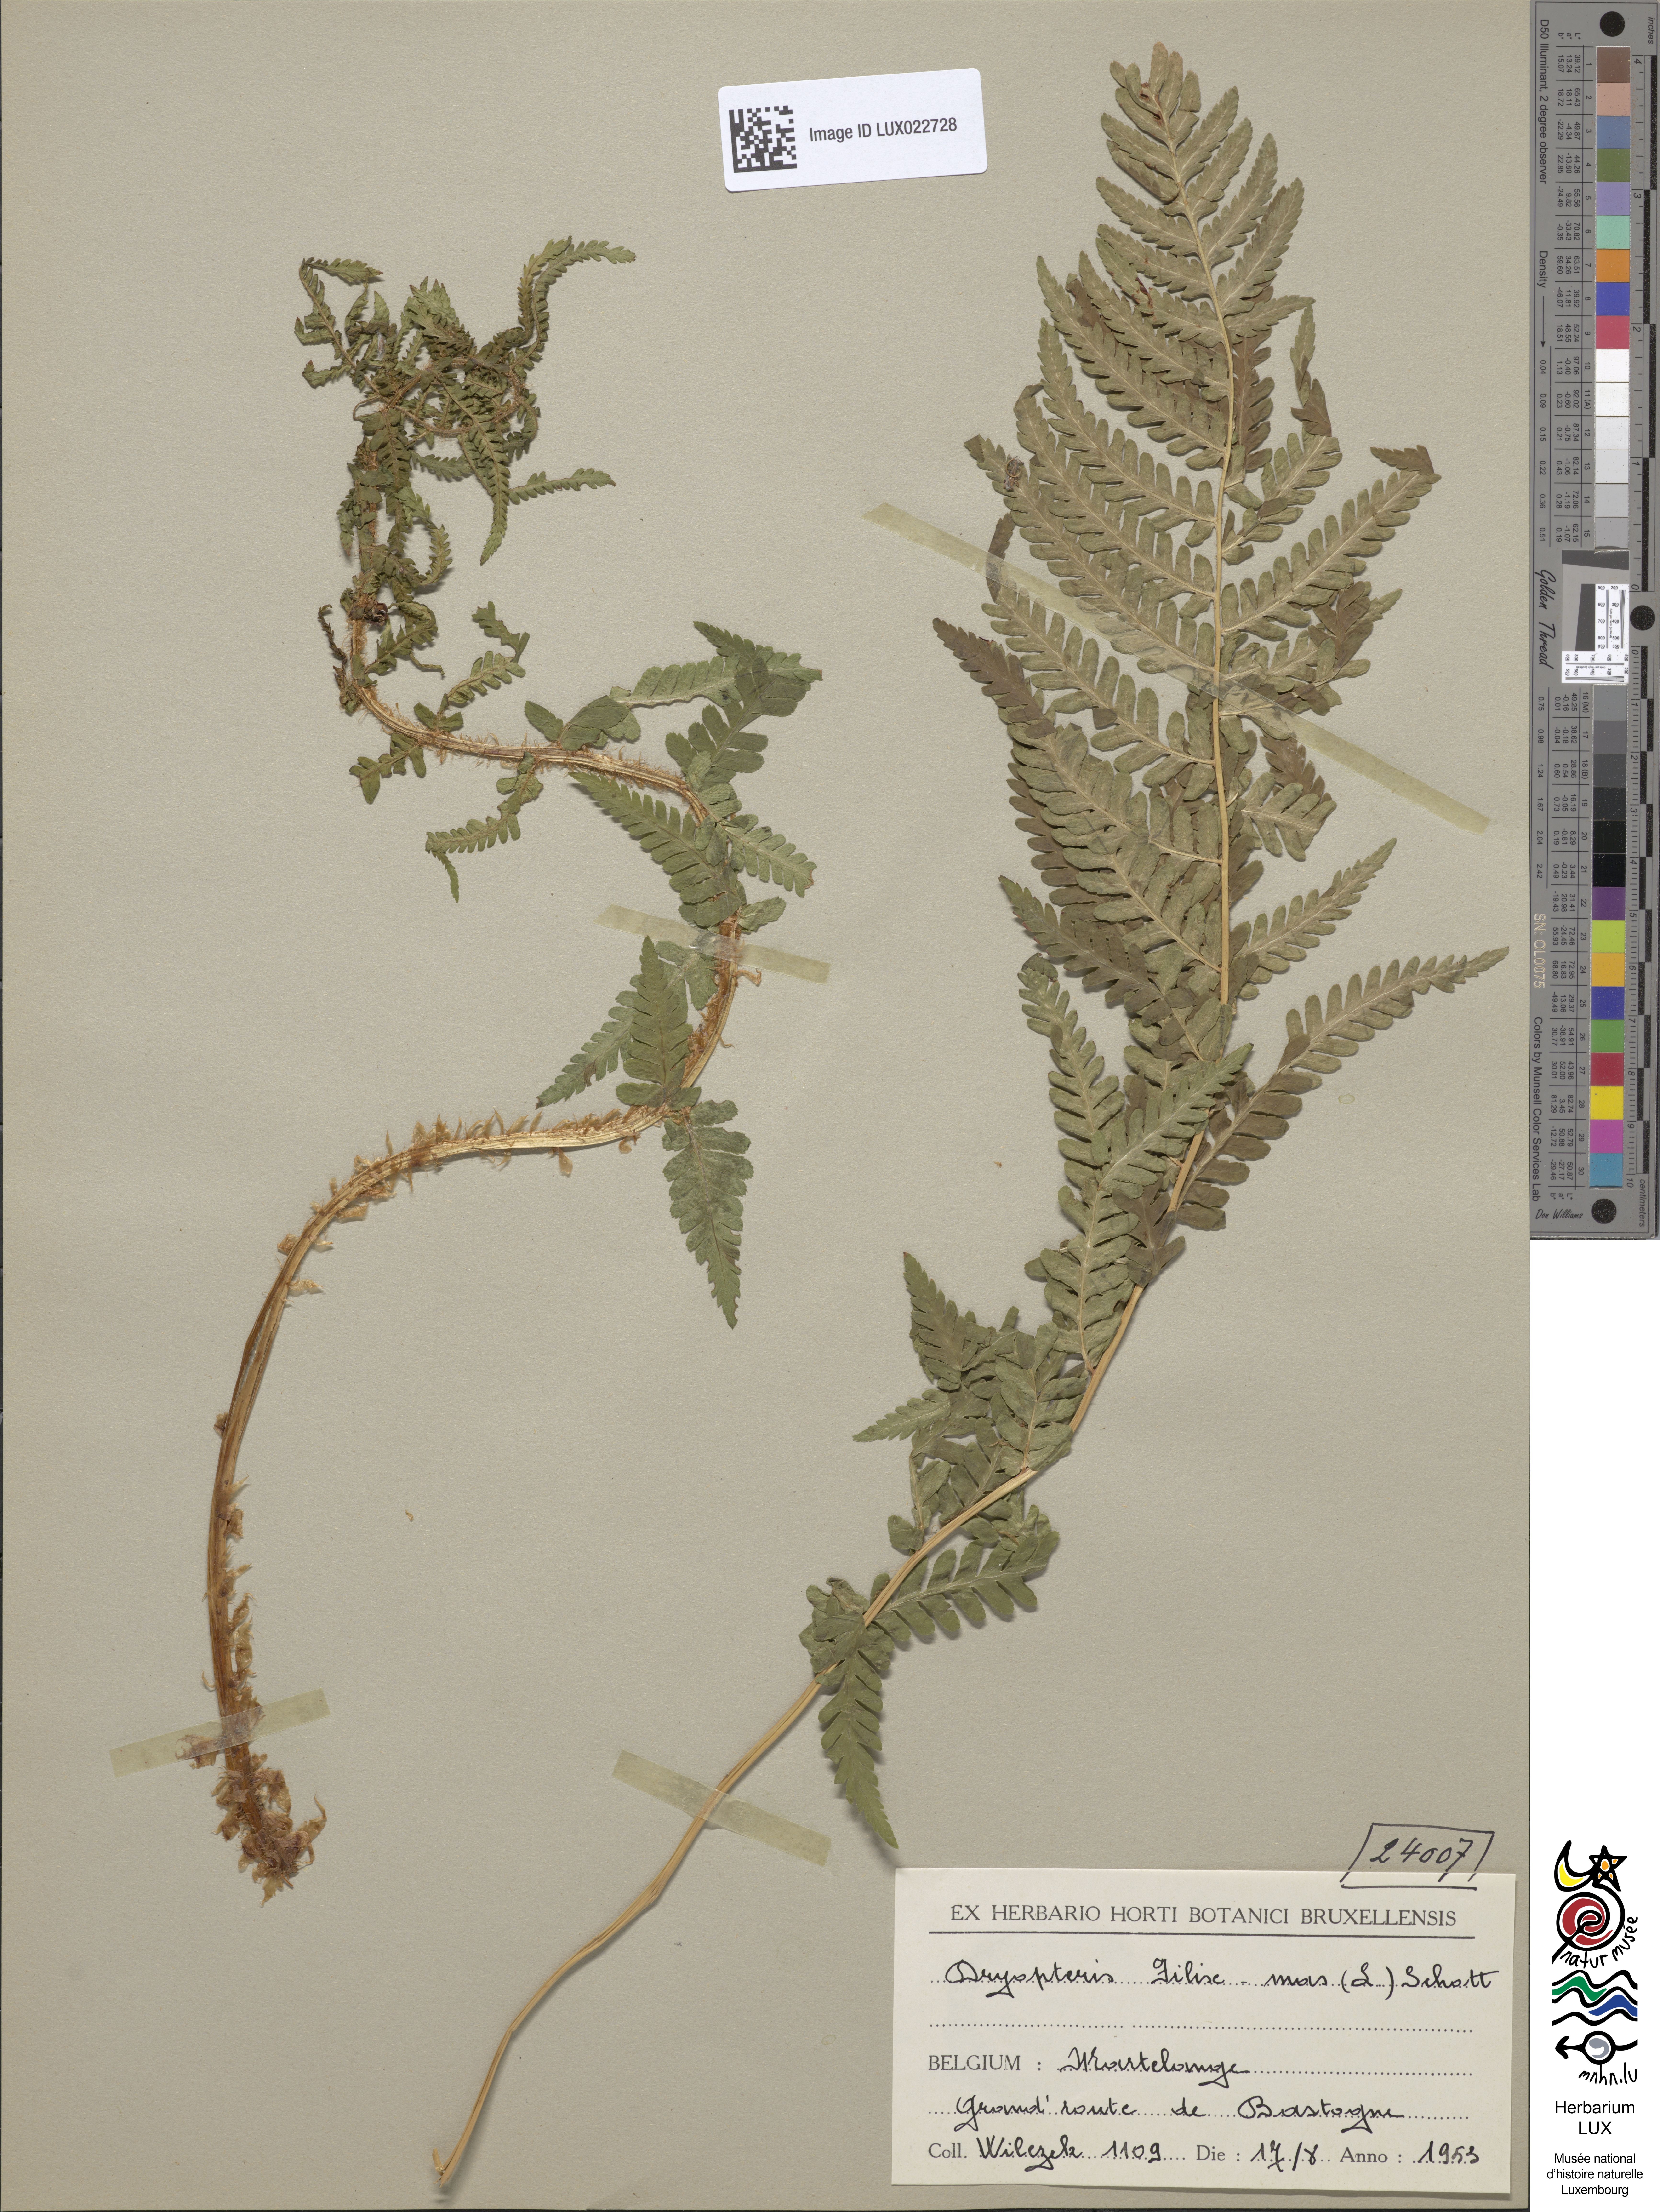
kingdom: Plantae
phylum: Tracheophyta
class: Polypodiopsida
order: Polypodiales
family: Dryopteridaceae
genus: Dryopteris
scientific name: Dryopteris filix-mas
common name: Male fern
